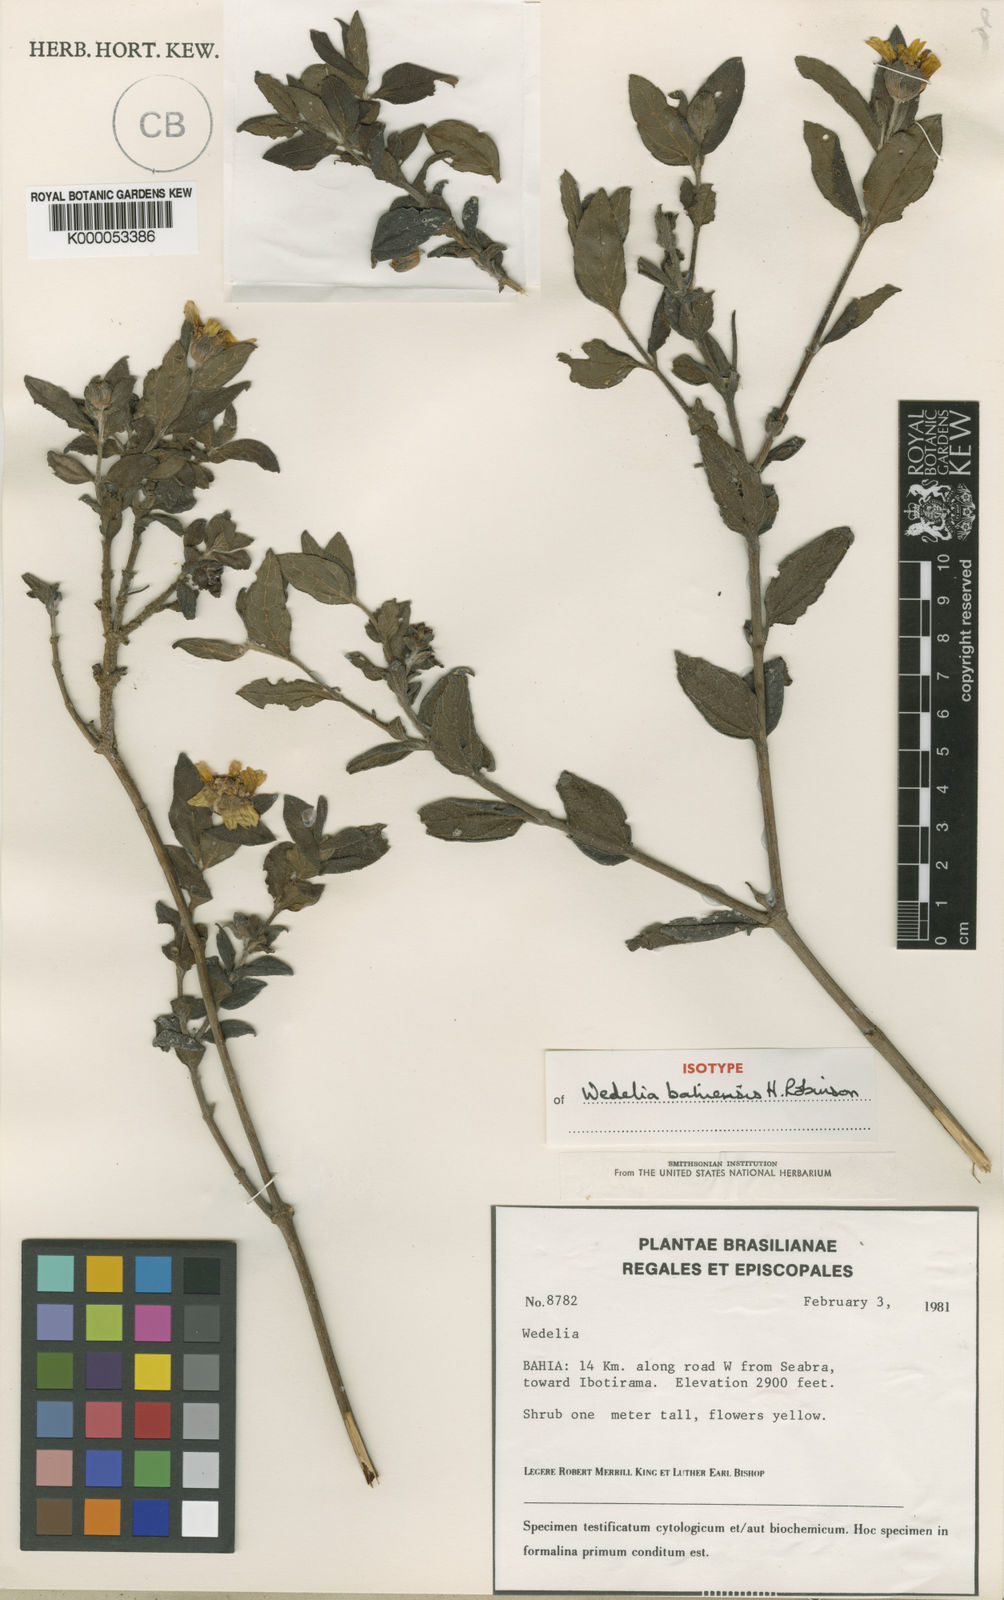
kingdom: Plantae
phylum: Tracheophyta
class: Magnoliopsida
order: Asterales
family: Asteraceae
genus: Wedelia
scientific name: Wedelia bahiensis
